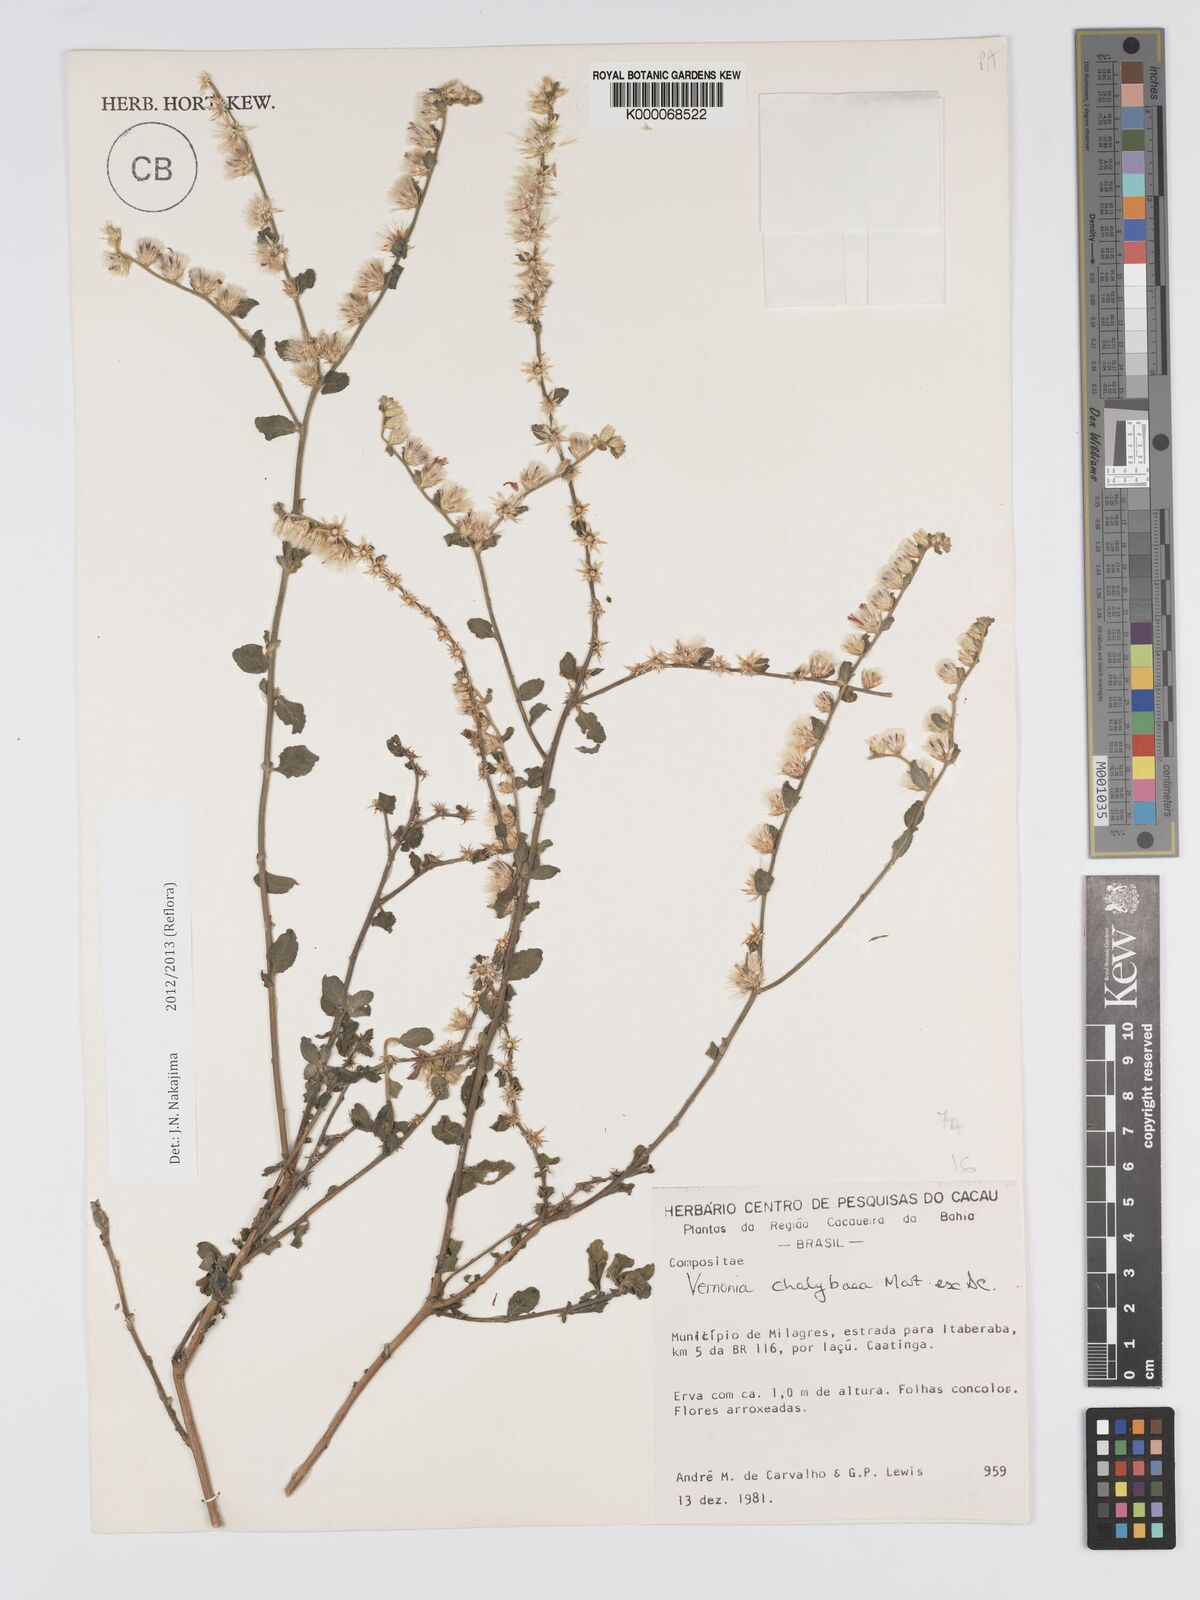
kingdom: Plantae
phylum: Tracheophyta
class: Magnoliopsida
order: Asterales
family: Asteraceae
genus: Lepidaploa
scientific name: Lepidaploa chalybaea
